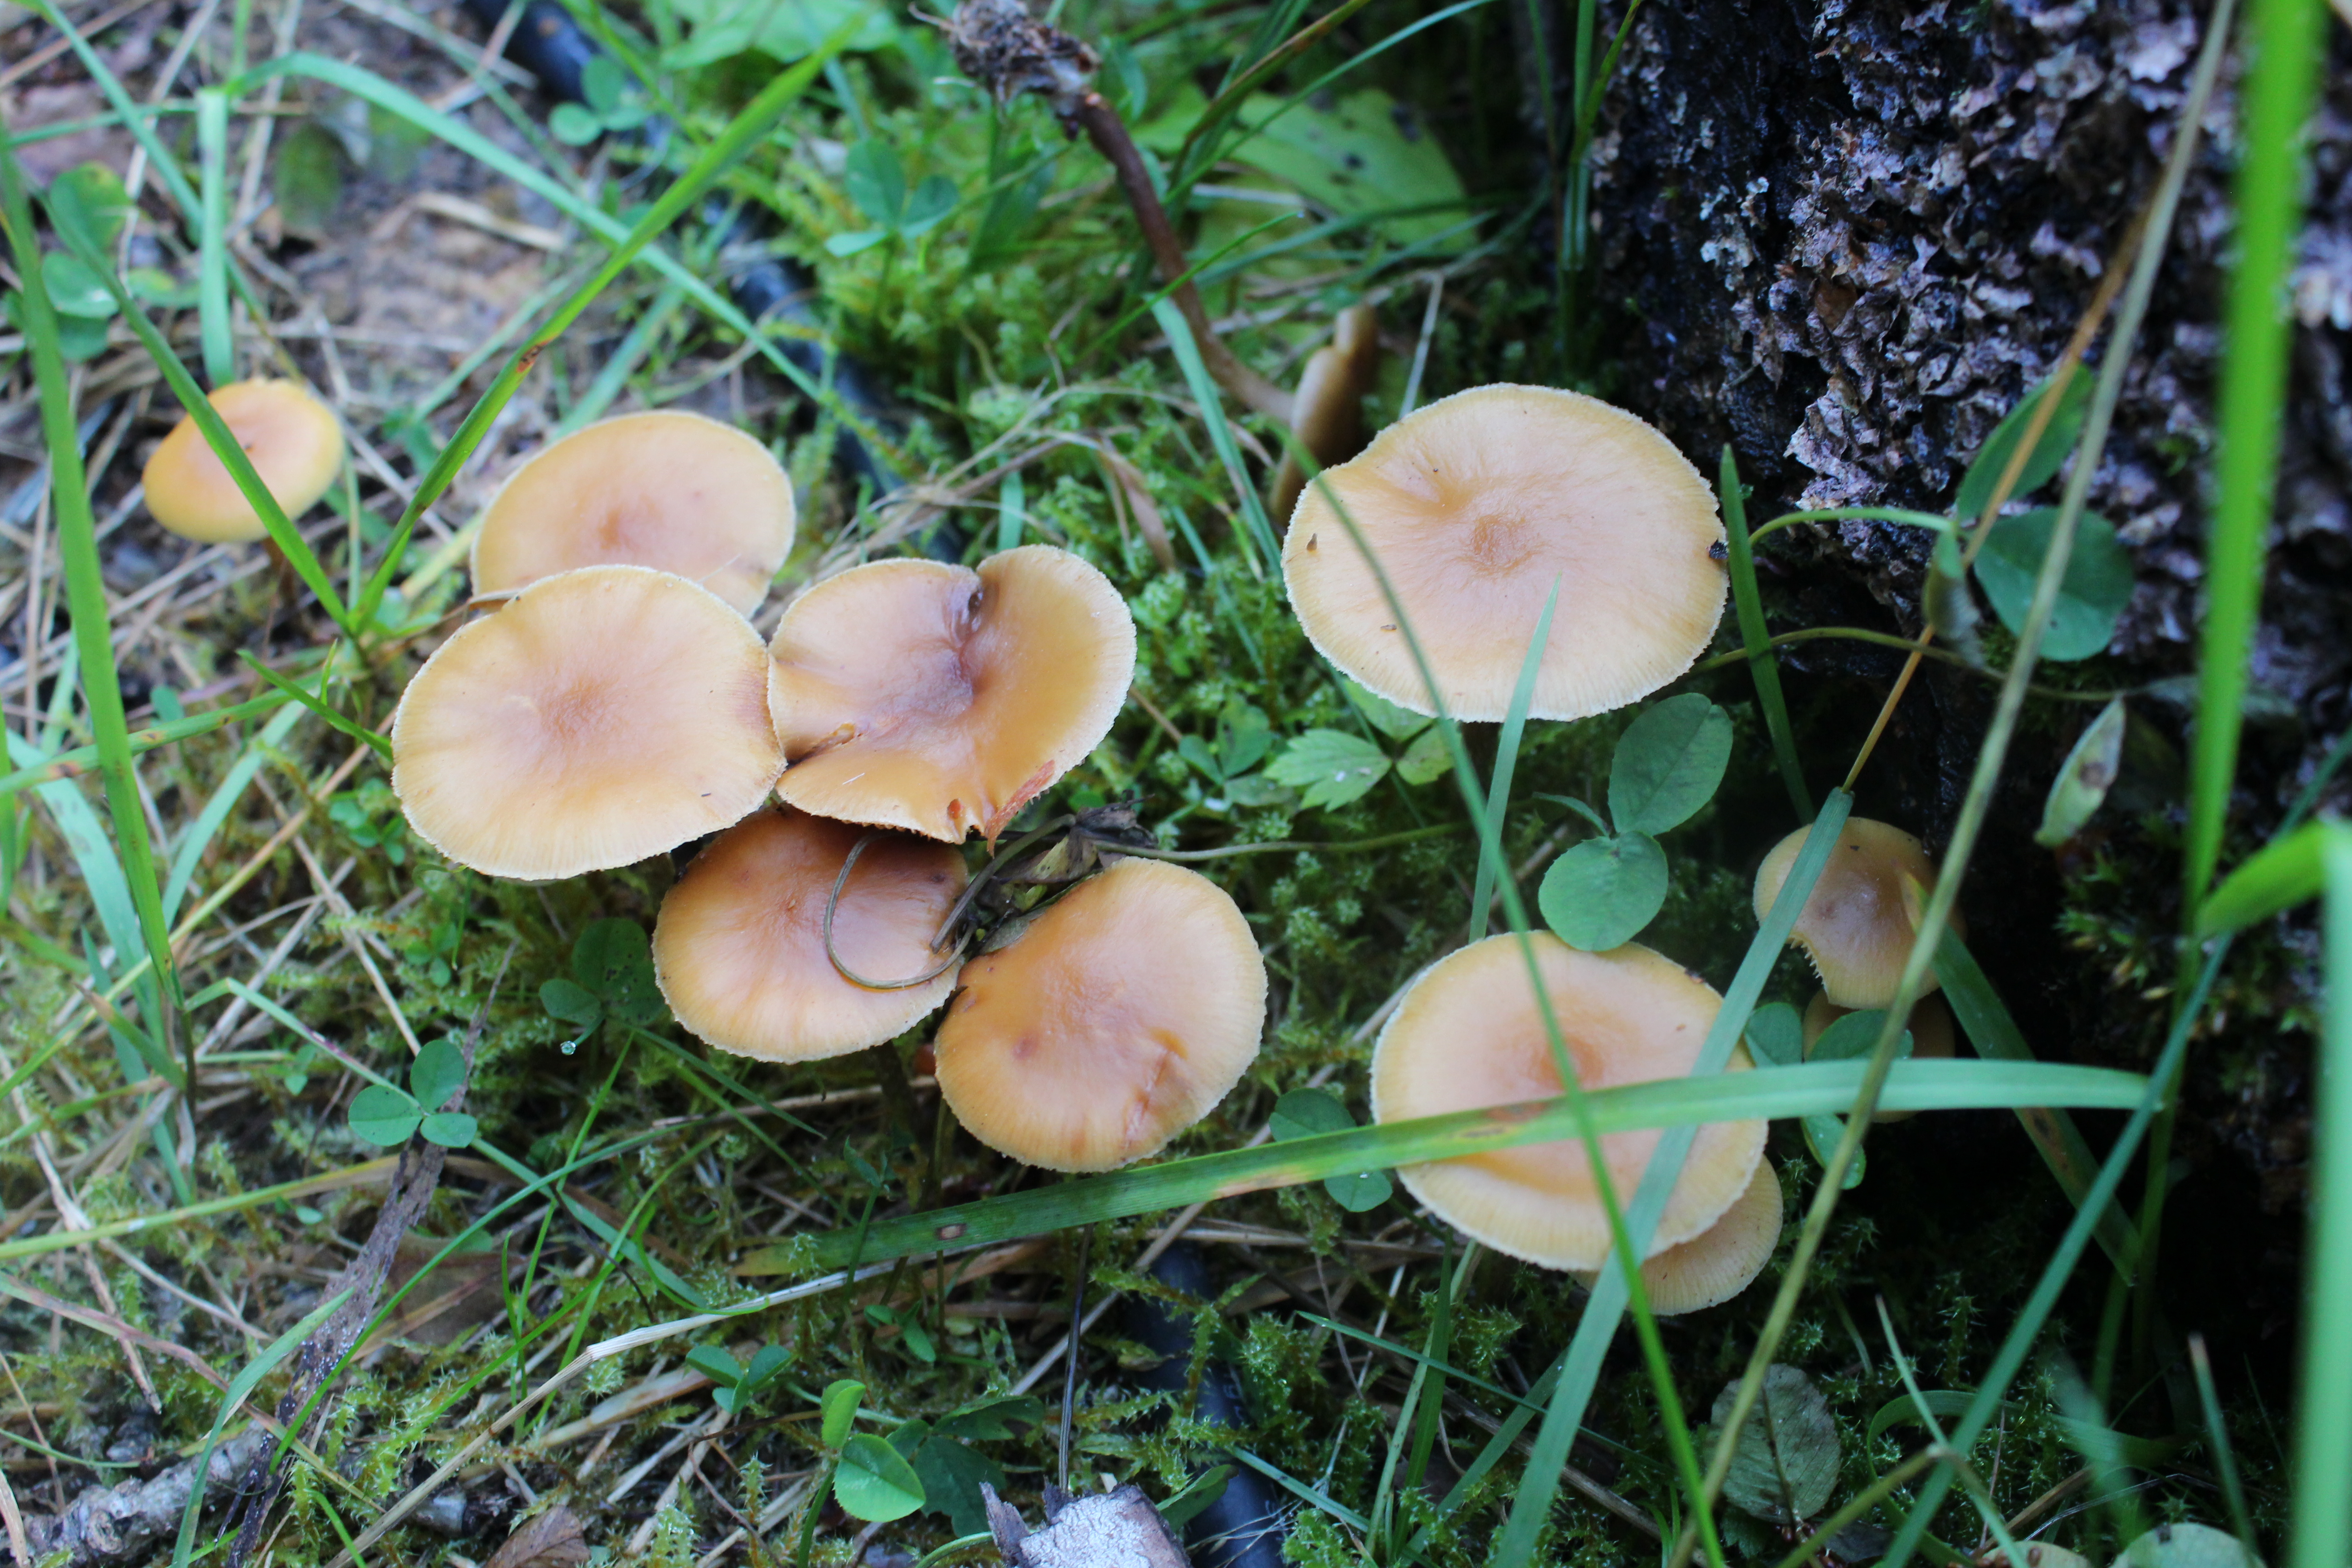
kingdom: Fungi
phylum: Basidiomycota
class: Agaricomycetes
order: Agaricales
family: Hymenogastraceae
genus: Galerina
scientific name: Galerina marginata
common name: Funeral bell
